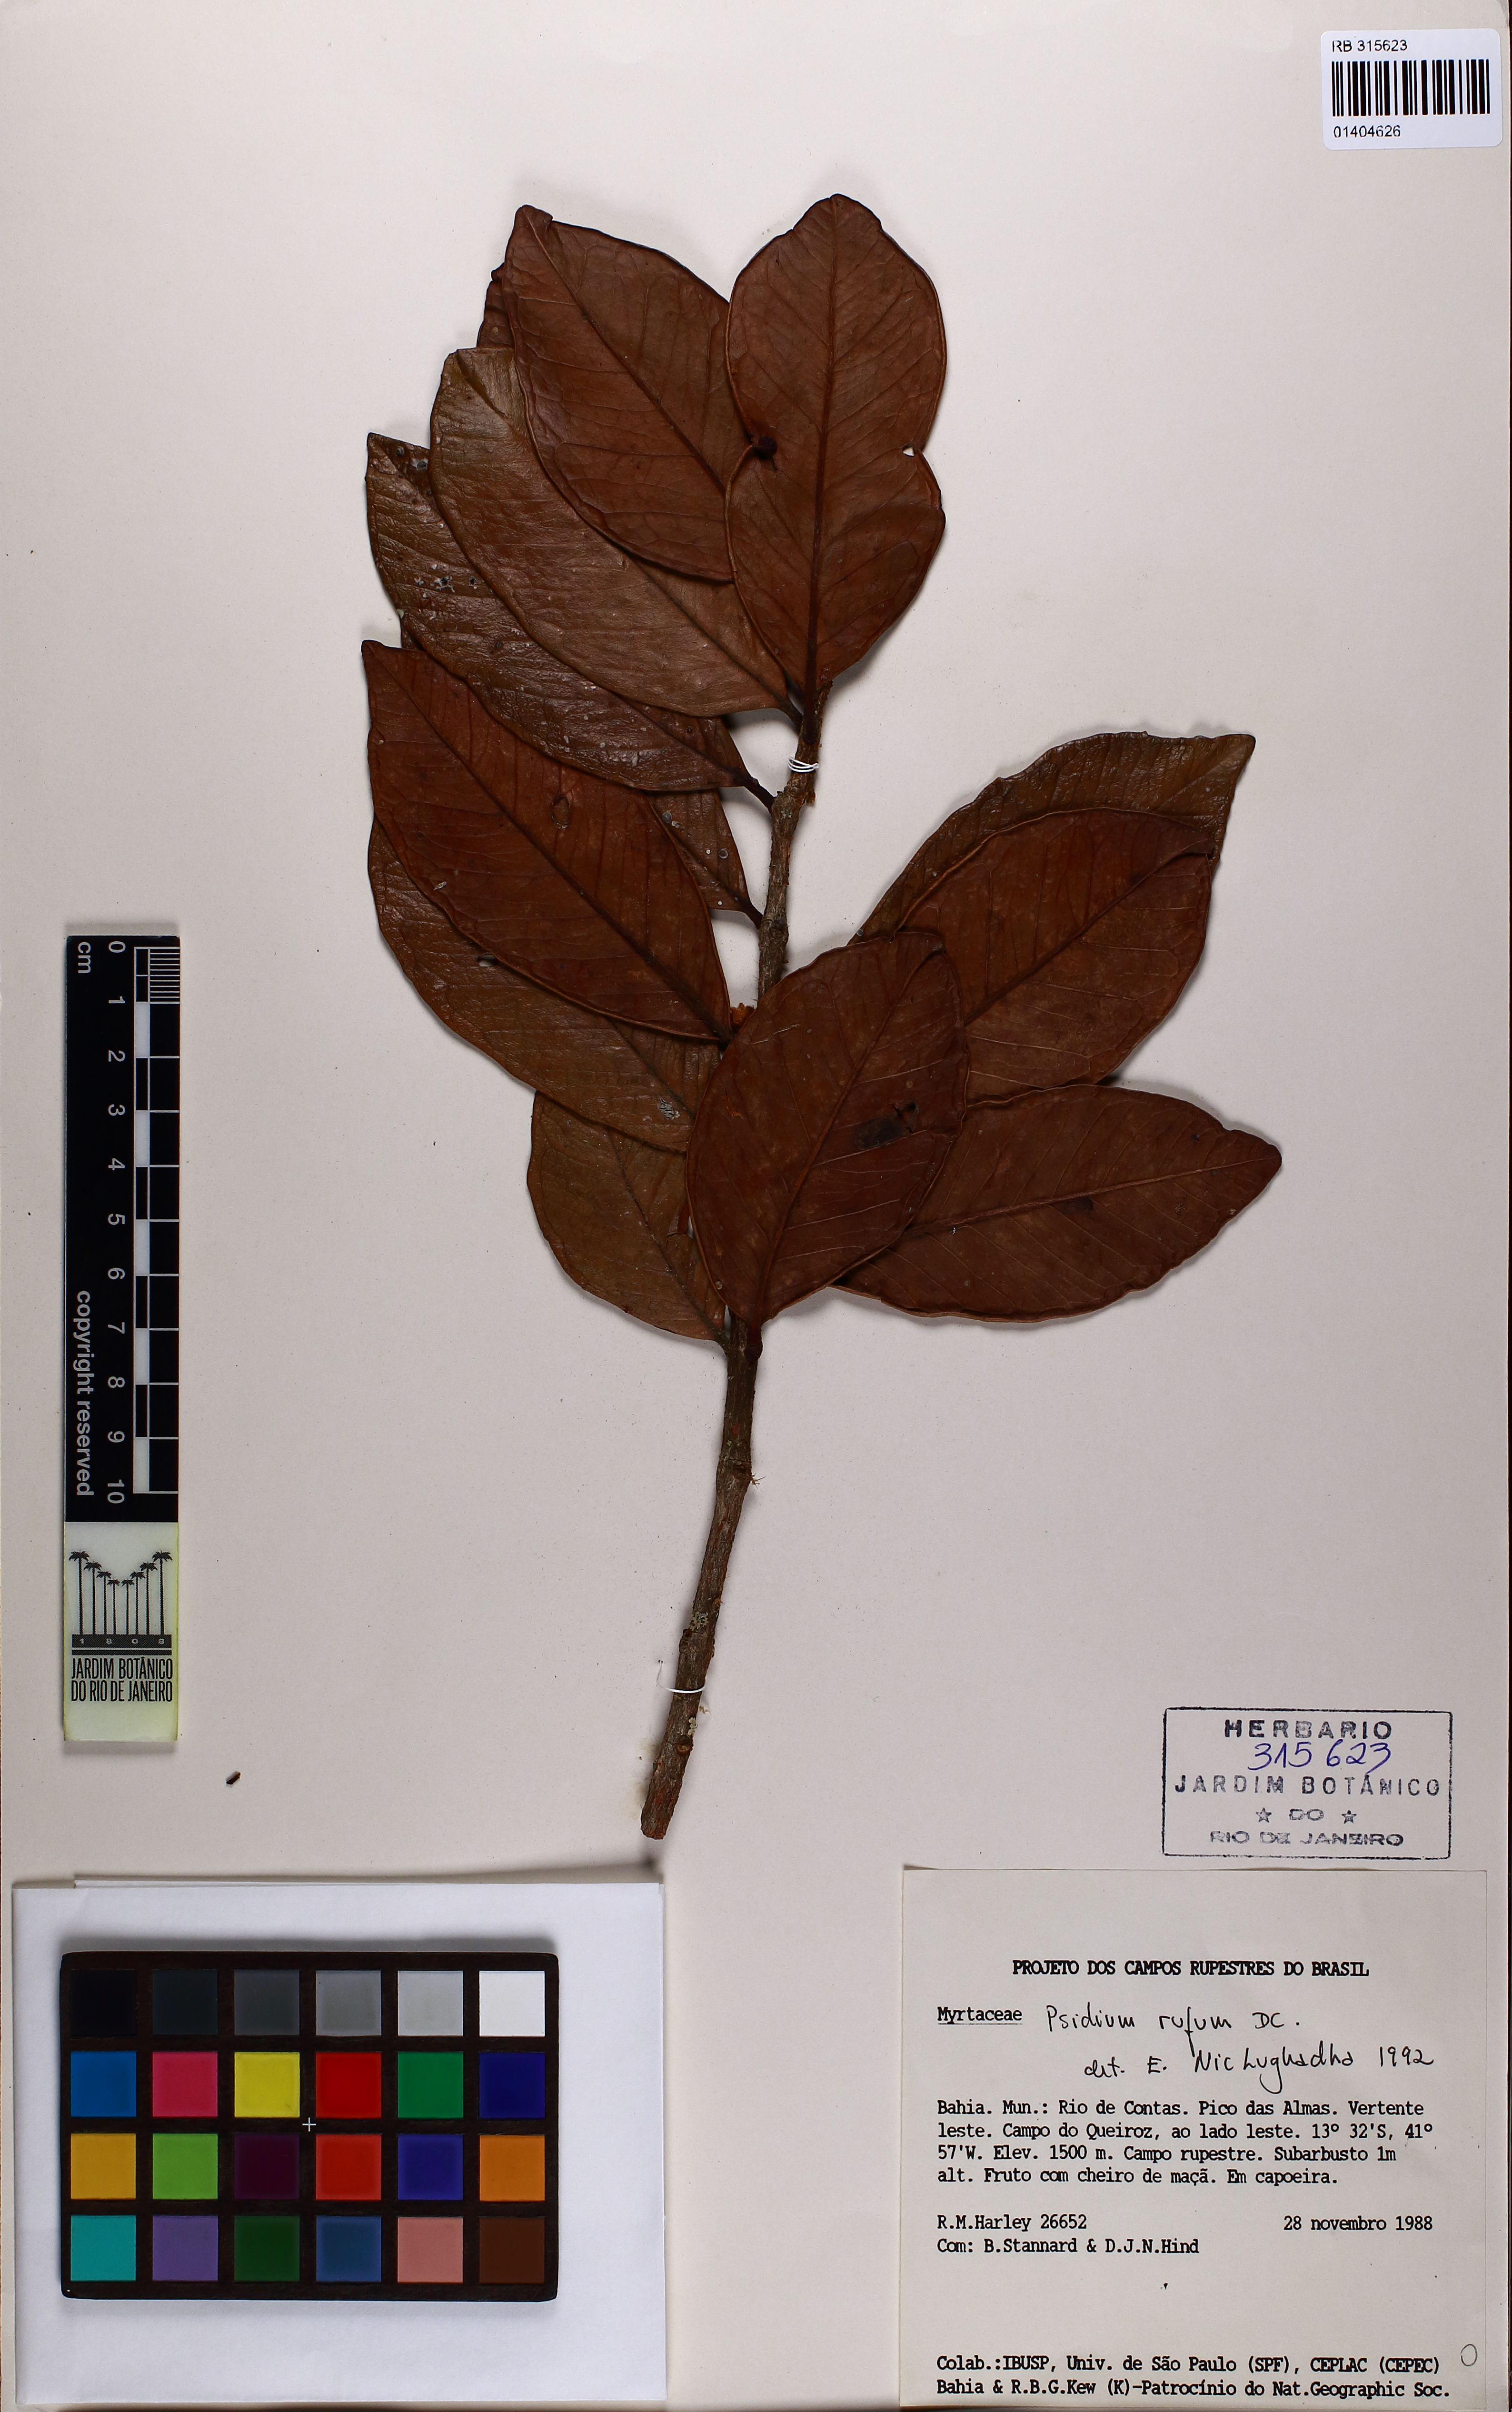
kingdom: Plantae
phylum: Tracheophyta
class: Magnoliopsida
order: Myrtales
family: Myrtaceae
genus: Psidium
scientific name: Psidium rufum
